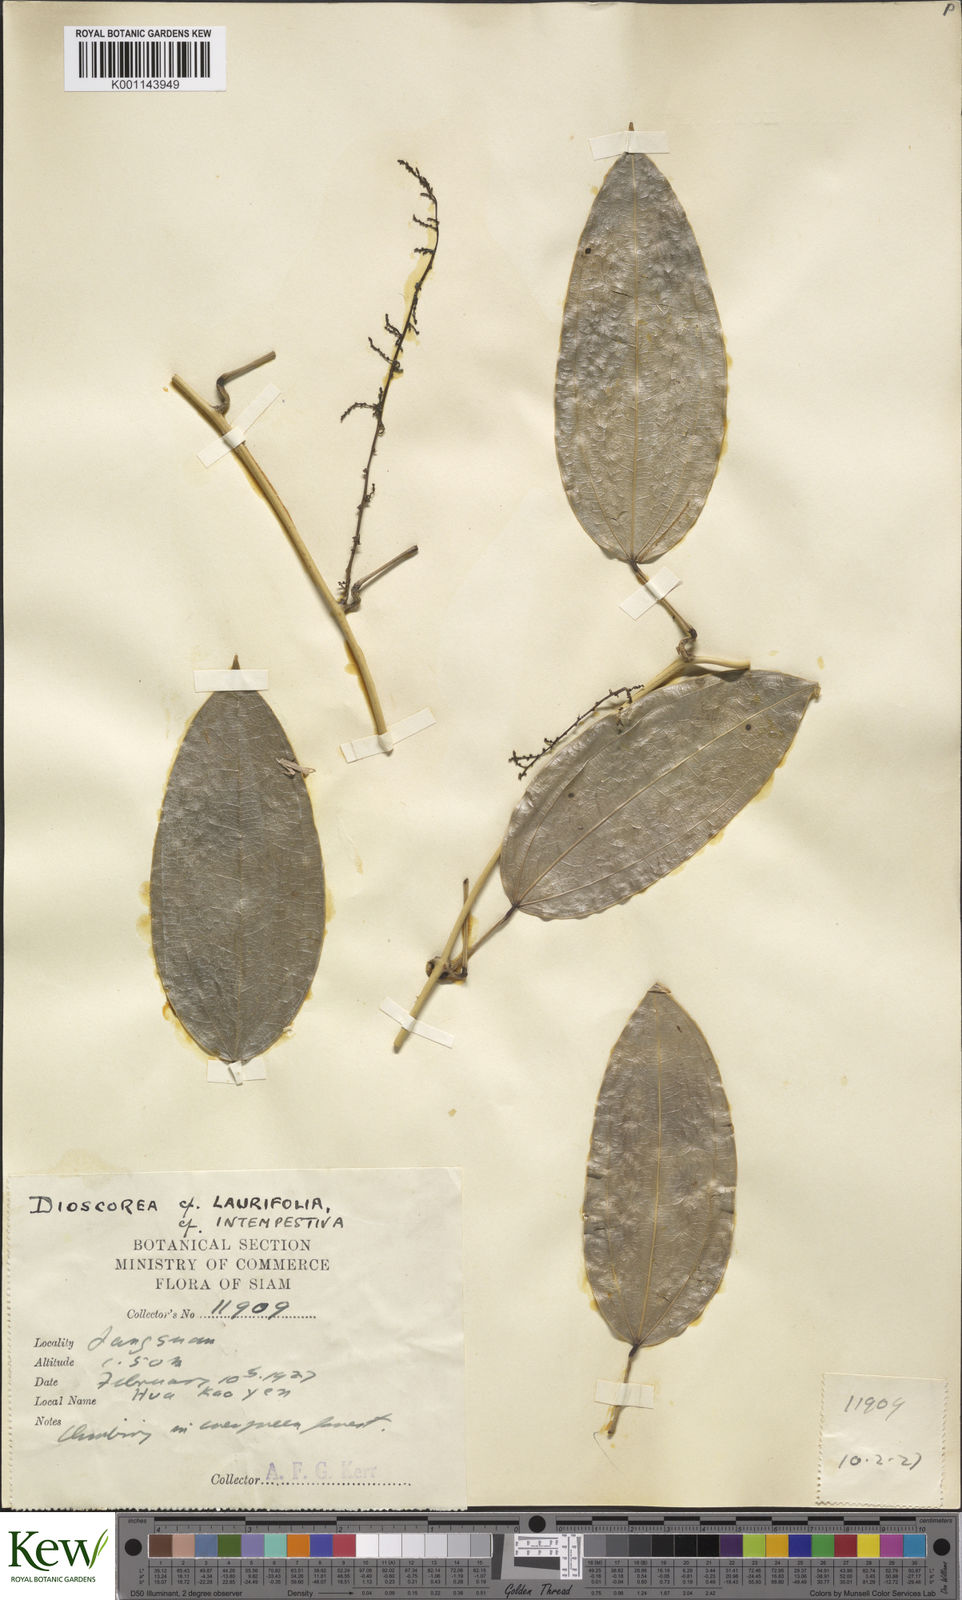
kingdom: Plantae
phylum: Tracheophyta
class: Liliopsida
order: Dioscoreales
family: Dioscoreaceae
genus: Dioscorea
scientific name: Dioscorea laurifolia
